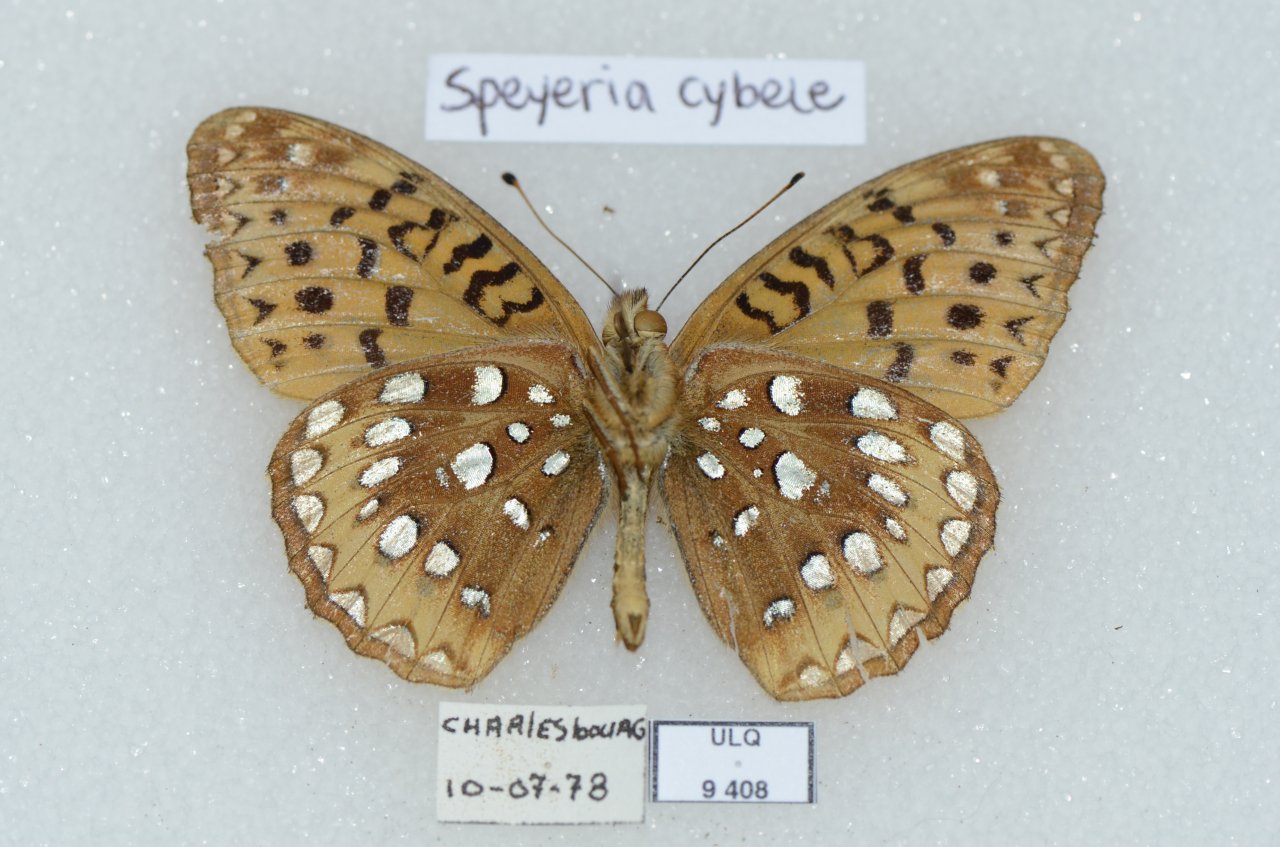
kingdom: Animalia
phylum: Arthropoda
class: Insecta
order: Lepidoptera
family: Nymphalidae
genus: Speyeria
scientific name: Speyeria cybele
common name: Great Spangled Fritillary
